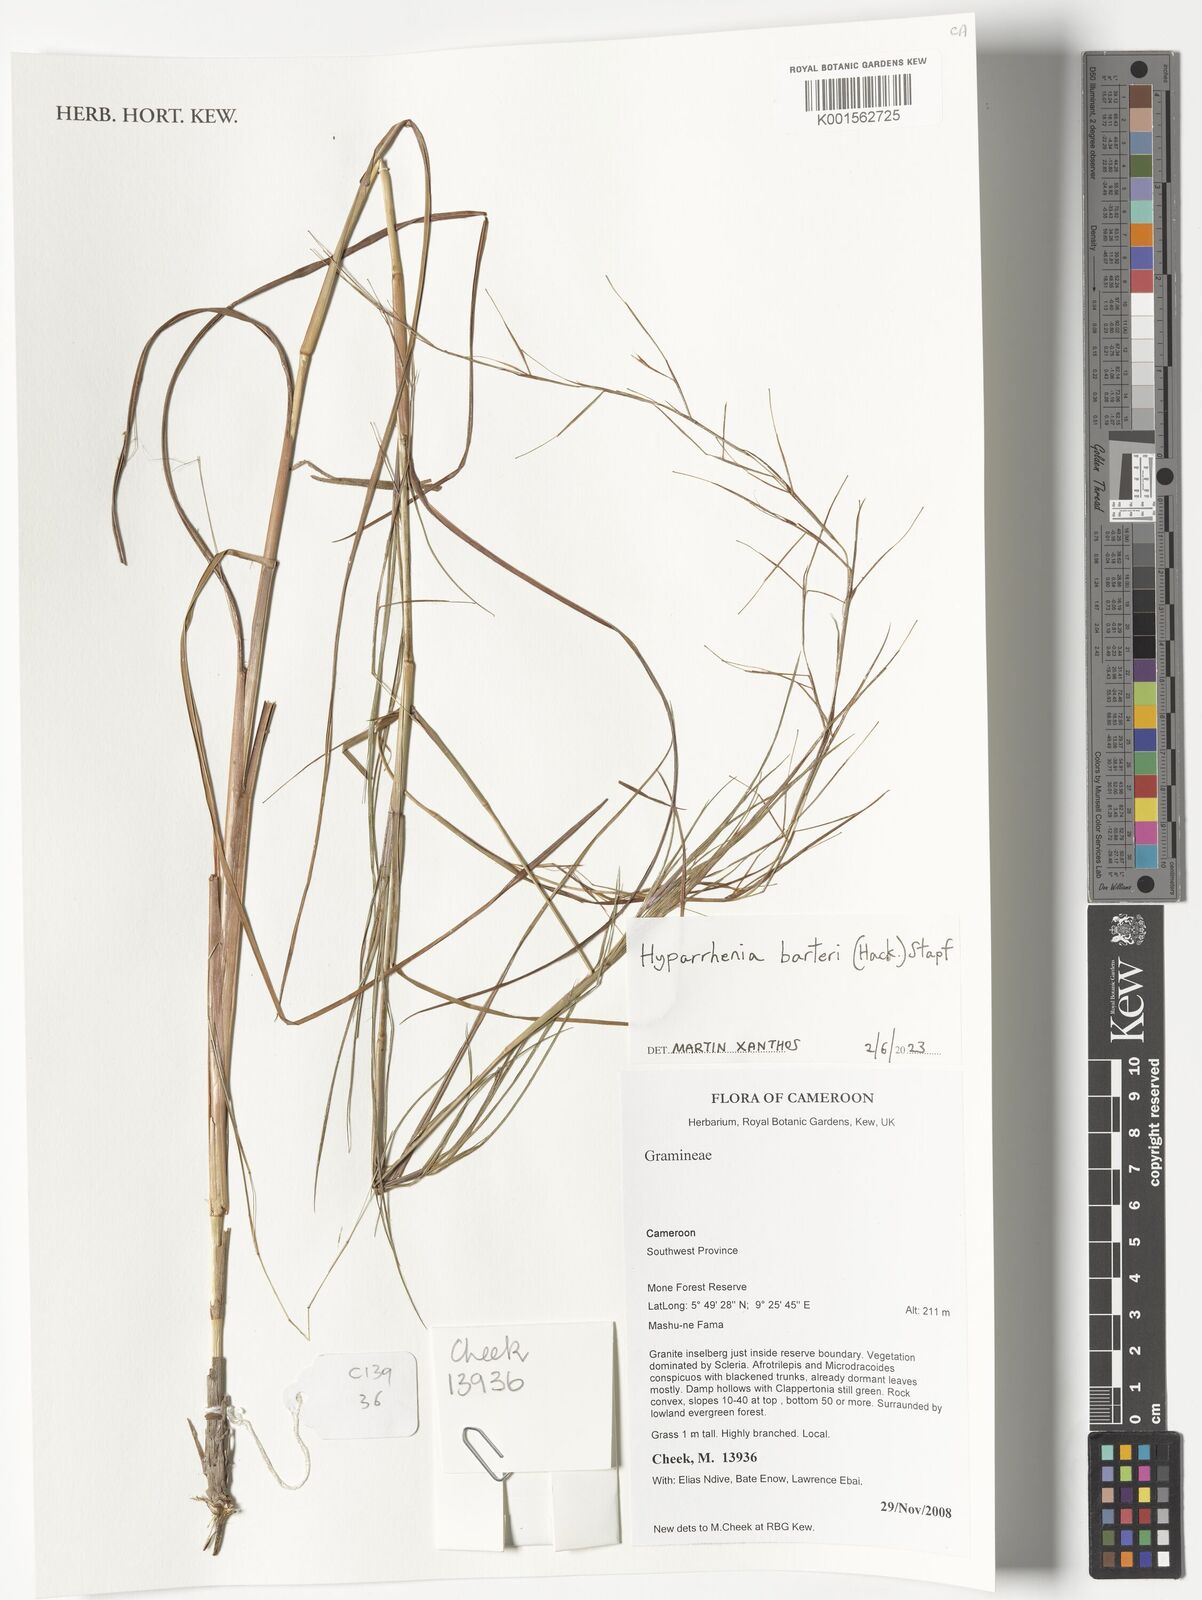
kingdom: Plantae
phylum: Tracheophyta
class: Liliopsida
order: Poales
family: Poaceae
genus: Hyparrhenia
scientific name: Hyparrhenia barteri
